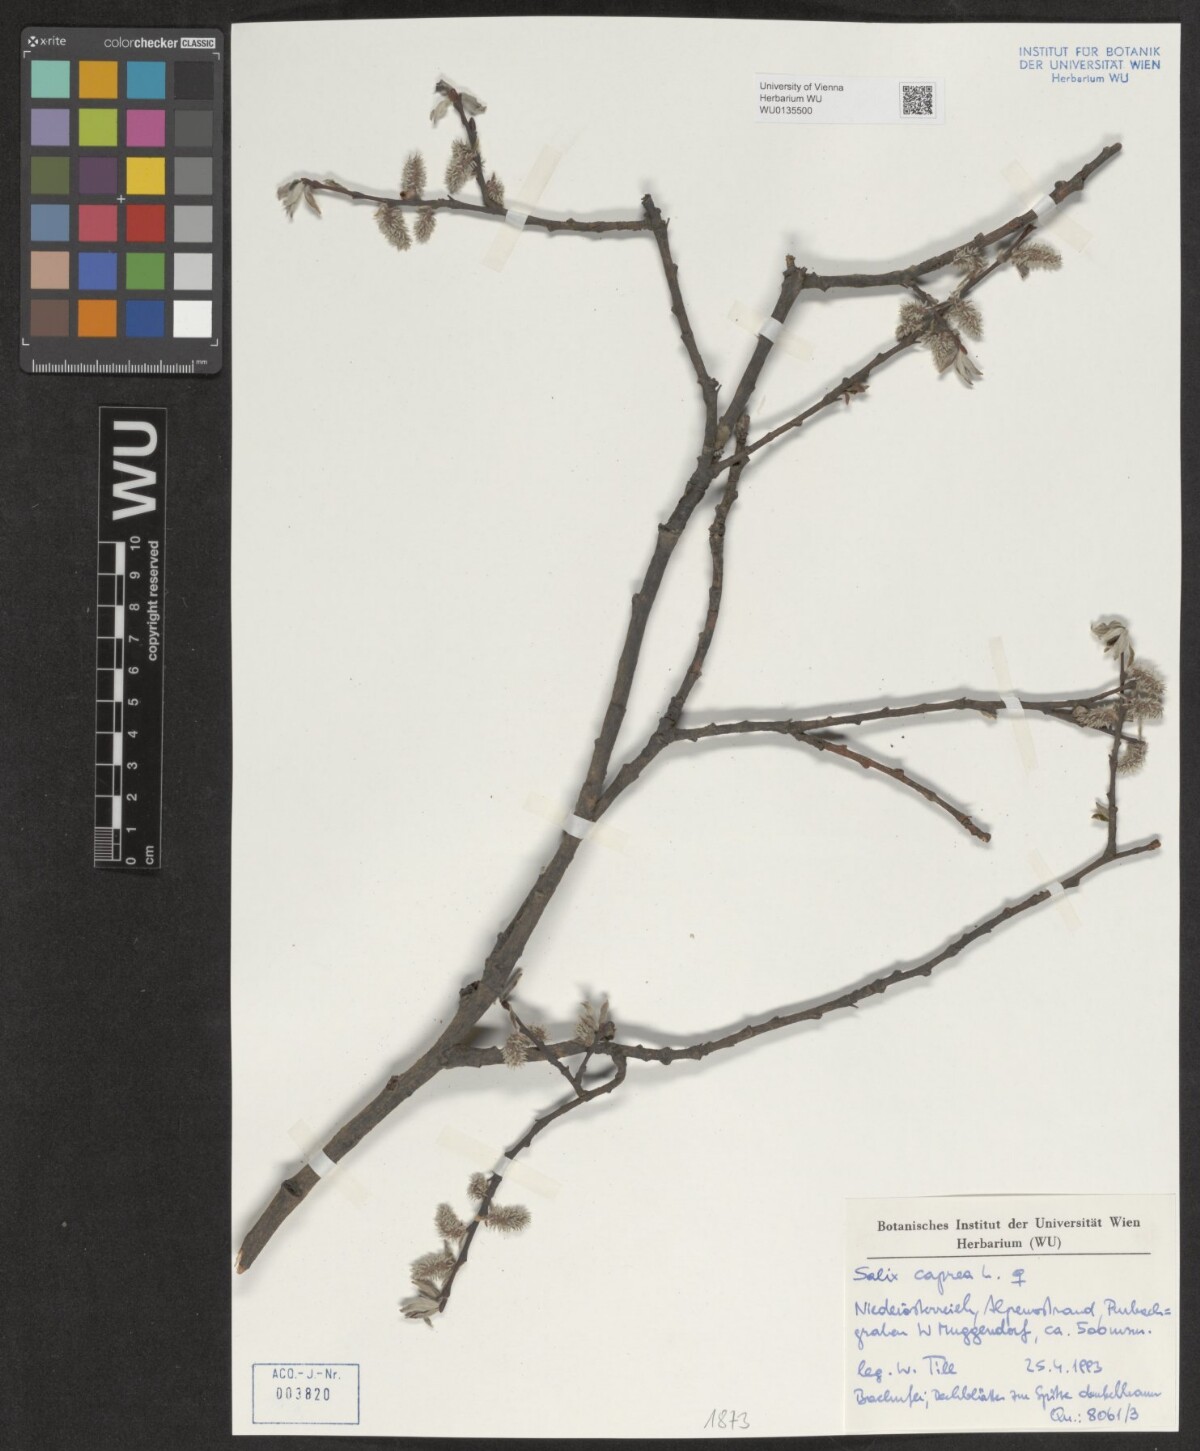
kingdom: Plantae
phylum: Tracheophyta
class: Magnoliopsida
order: Malpighiales
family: Salicaceae
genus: Salix
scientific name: Salix caprea
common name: Goat willow
